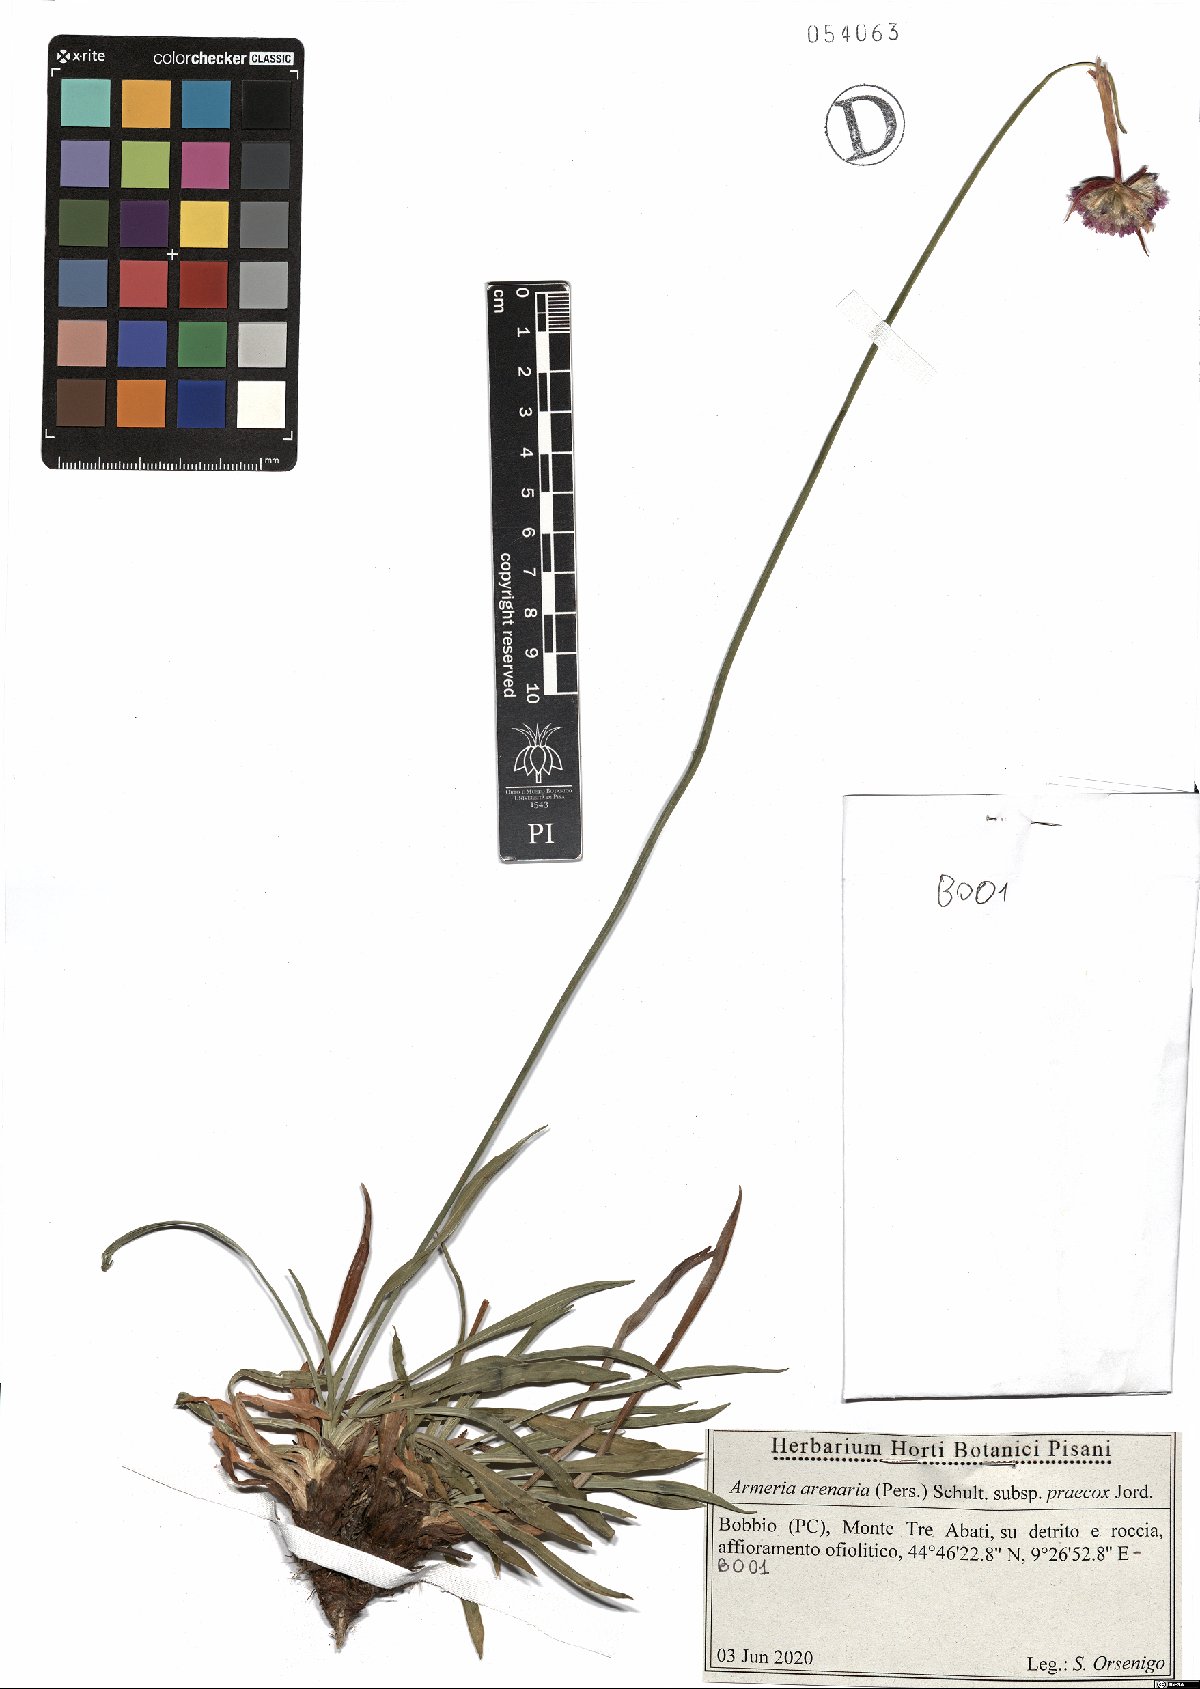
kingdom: Plantae
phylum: Tracheophyta
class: Magnoliopsida
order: Caryophyllales
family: Plumbaginaceae
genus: Armeria
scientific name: Armeria arenaria
